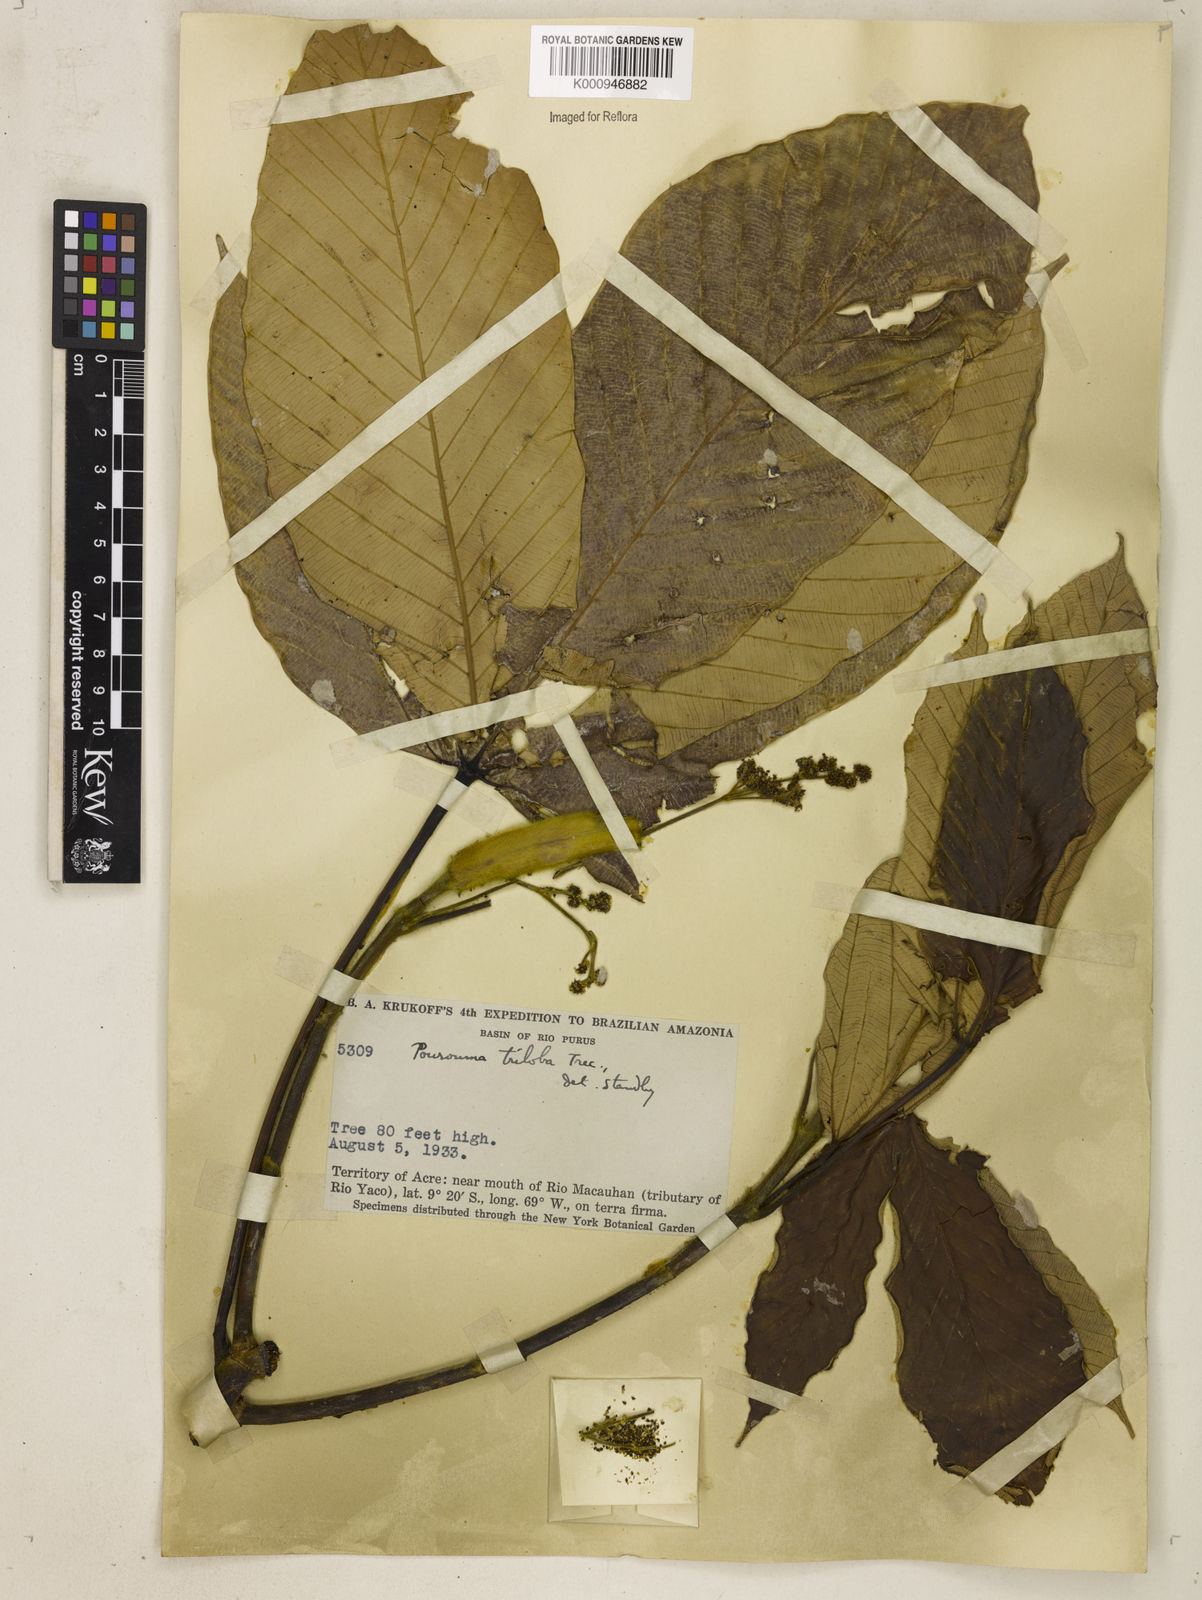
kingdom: Plantae
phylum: Tracheophyta
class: Magnoliopsida
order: Rosales
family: Urticaceae
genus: Pourouma
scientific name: Pourouma
